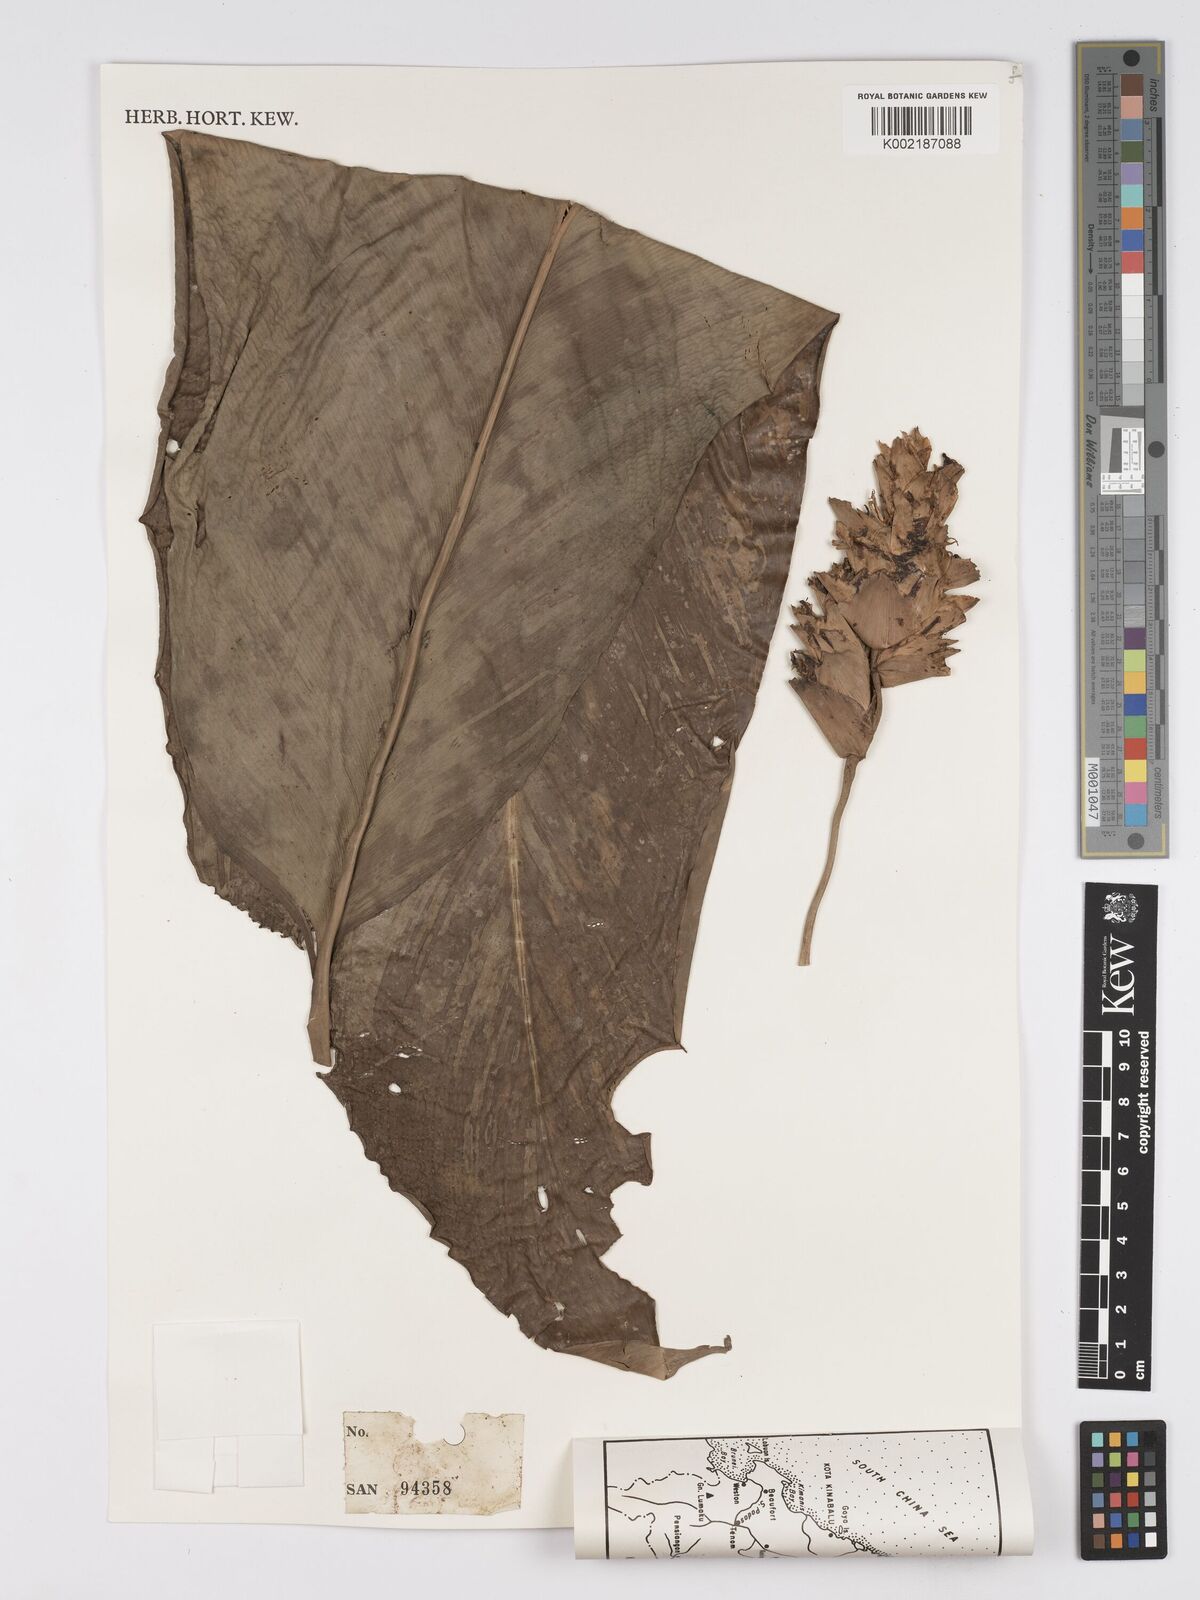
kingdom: Plantae
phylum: Tracheophyta
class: Liliopsida
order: Zingiberales
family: Marantaceae
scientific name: Marantaceae
